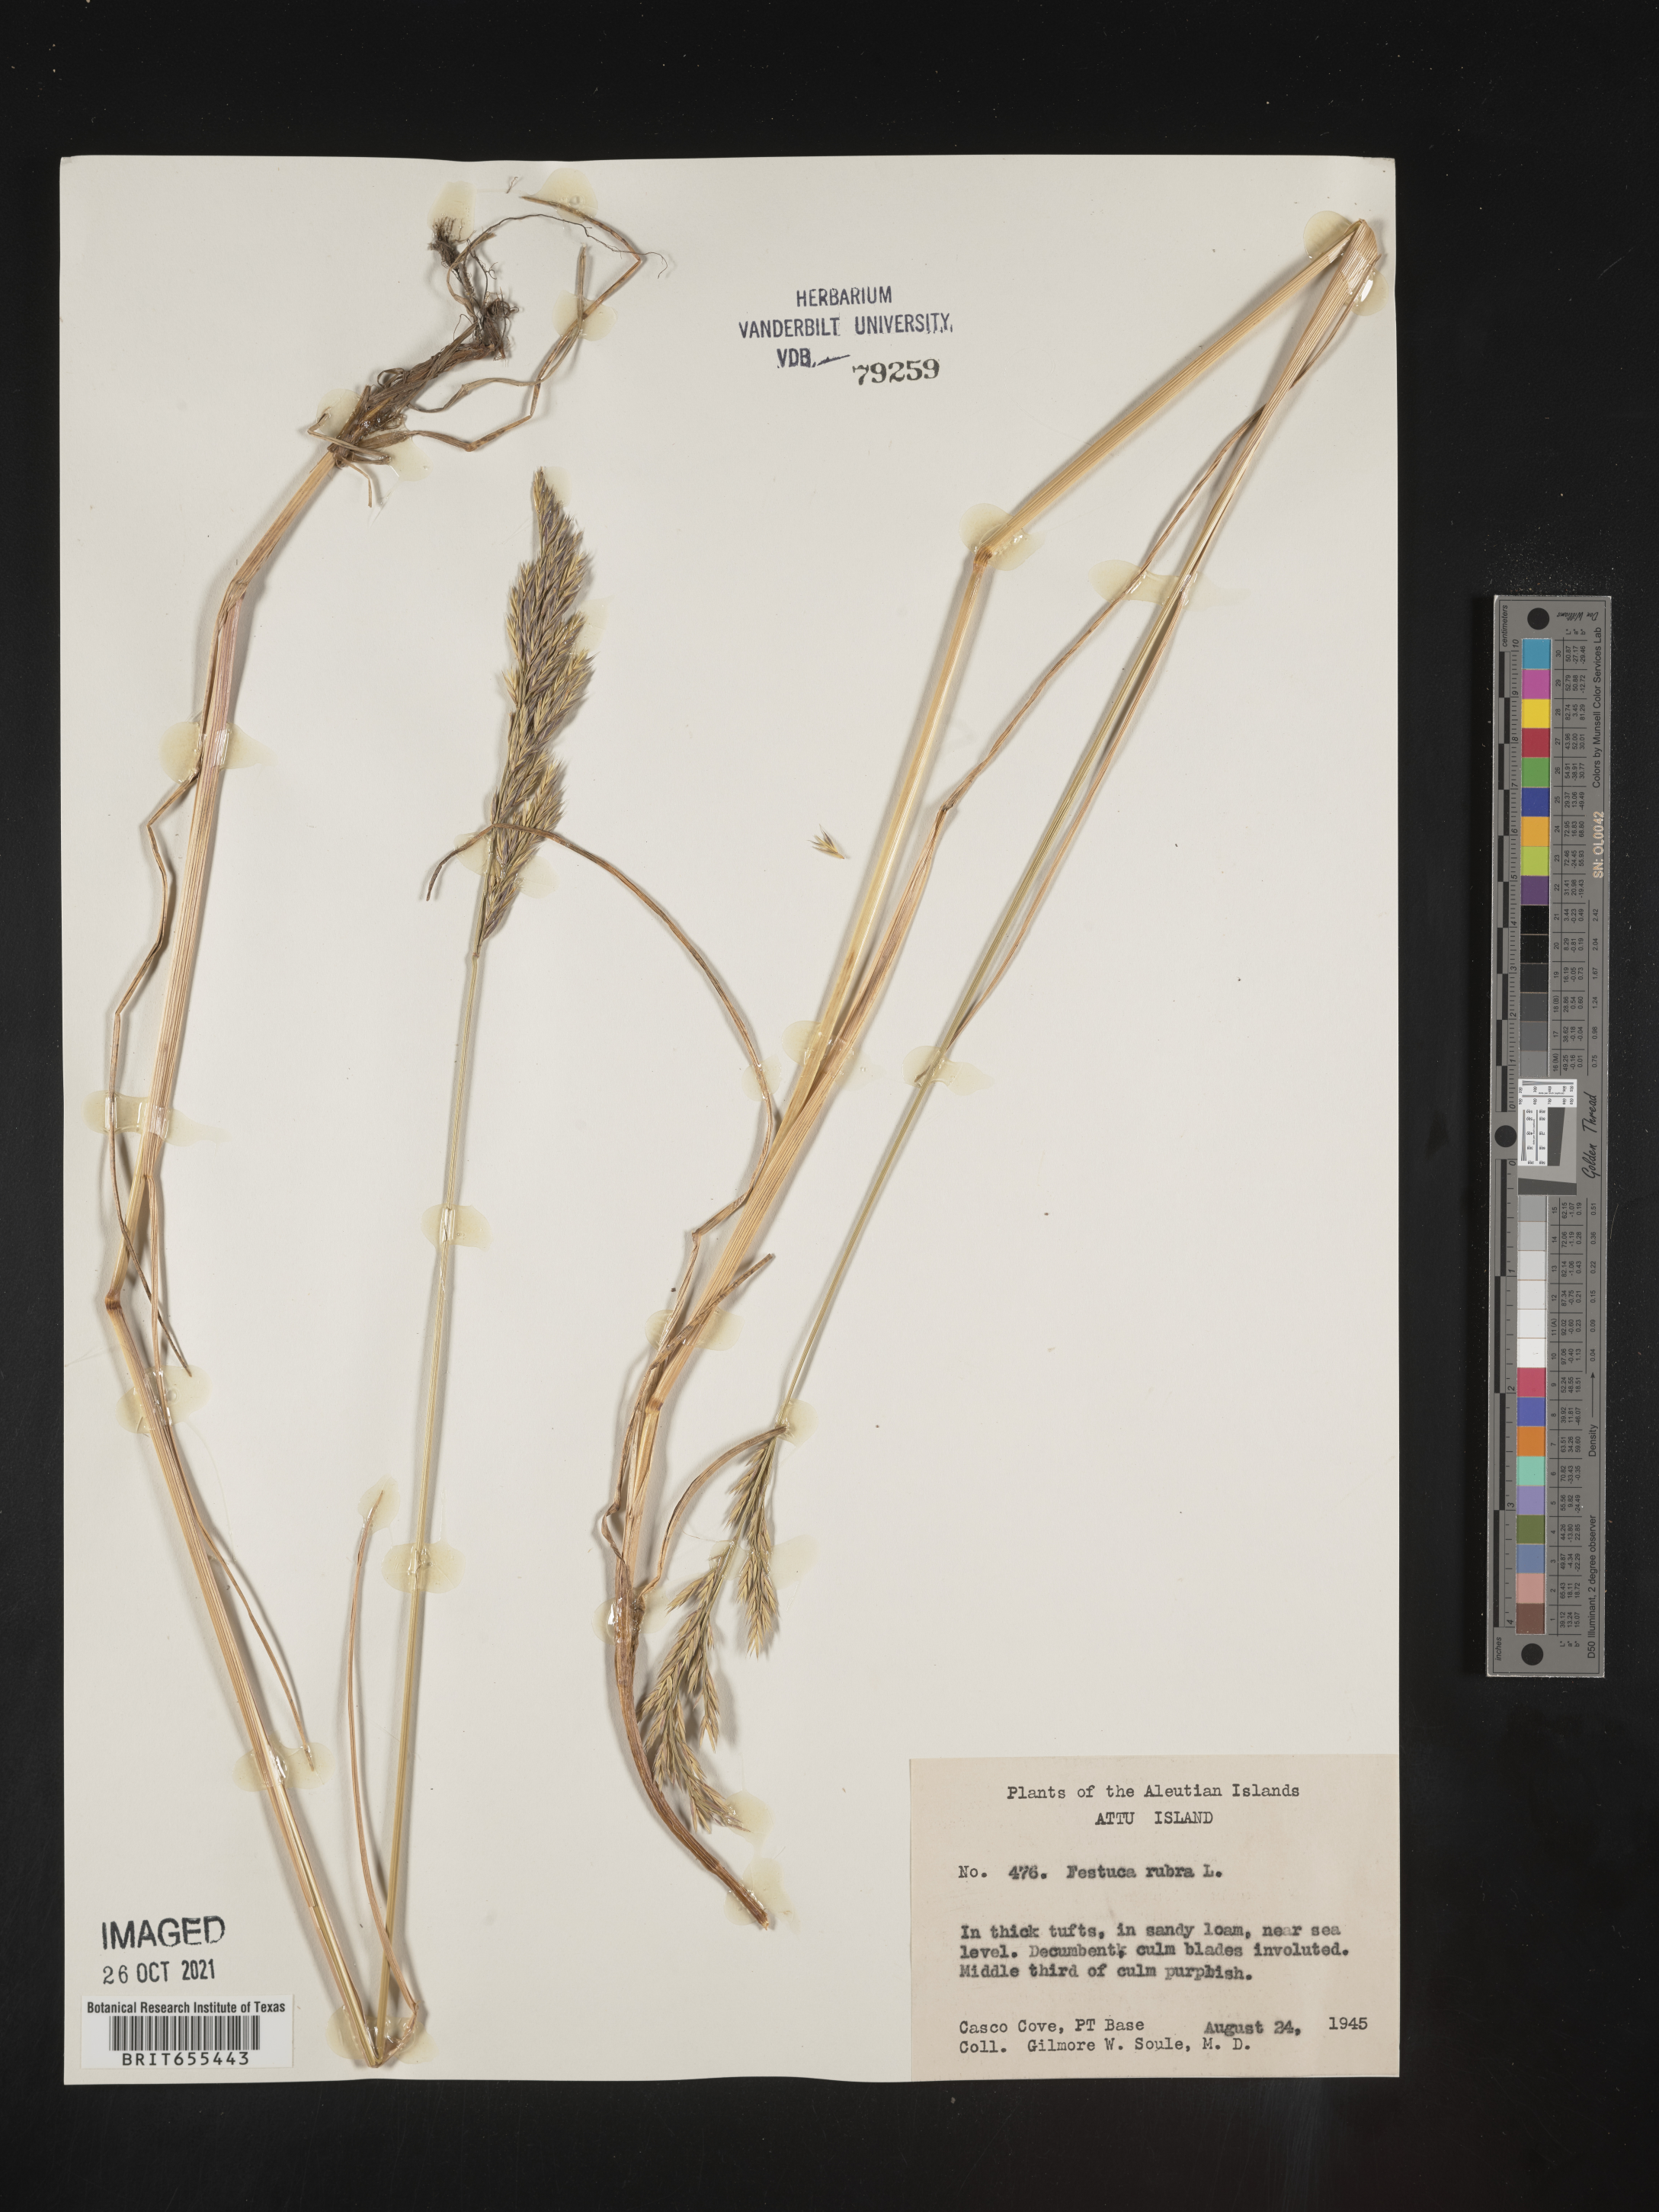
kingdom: Plantae
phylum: Tracheophyta
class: Liliopsida
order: Poales
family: Poaceae
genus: Festuca
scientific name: Festuca
